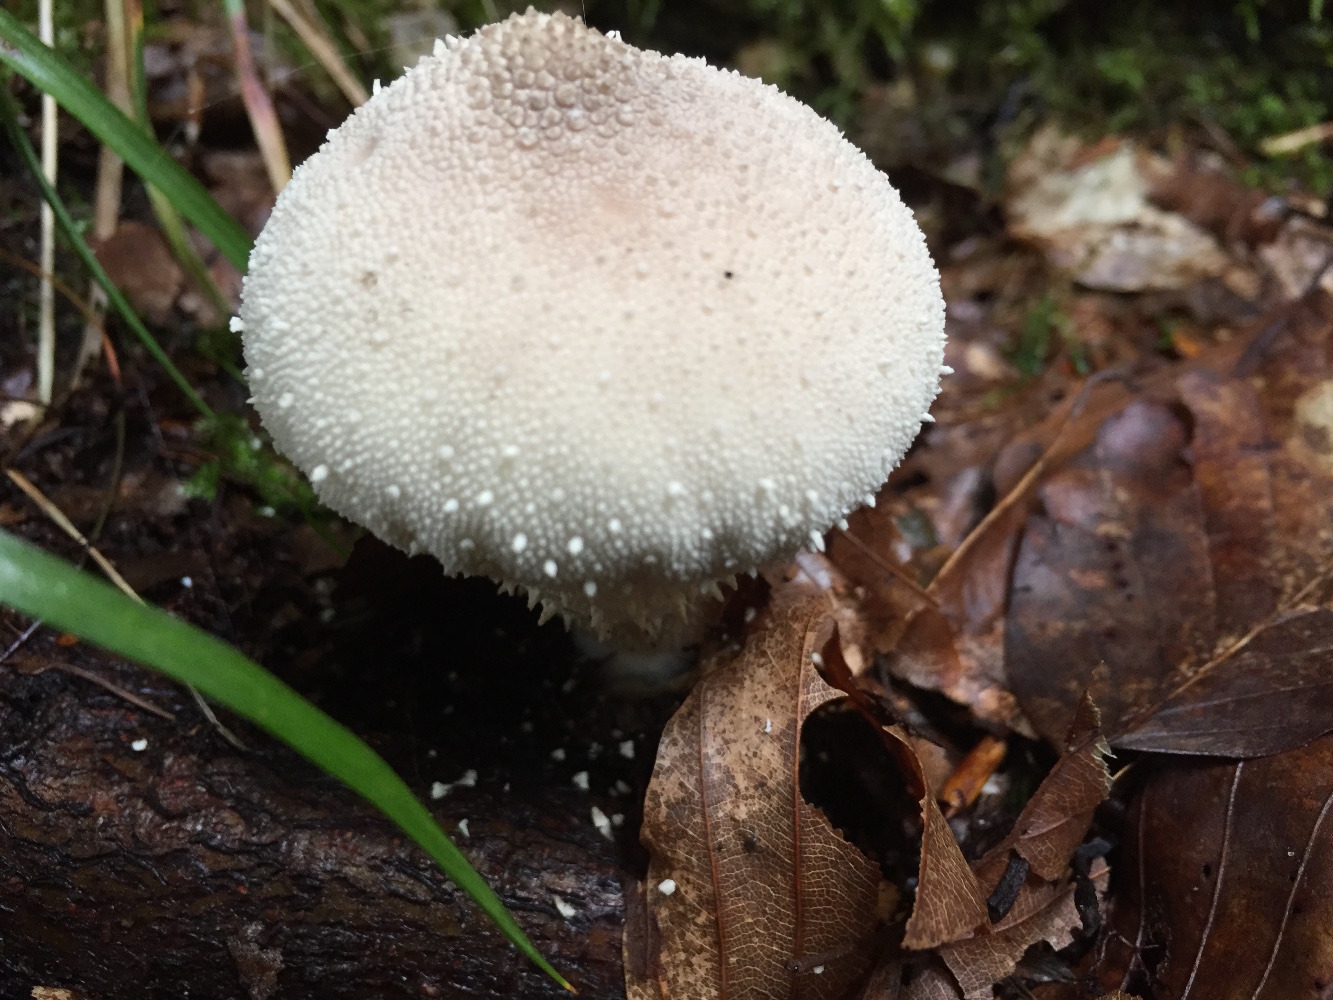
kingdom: Fungi
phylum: Basidiomycota
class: Agaricomycetes
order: Agaricales
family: Lycoperdaceae
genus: Lycoperdon
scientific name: Lycoperdon perlatum
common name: krystal-støvbold
